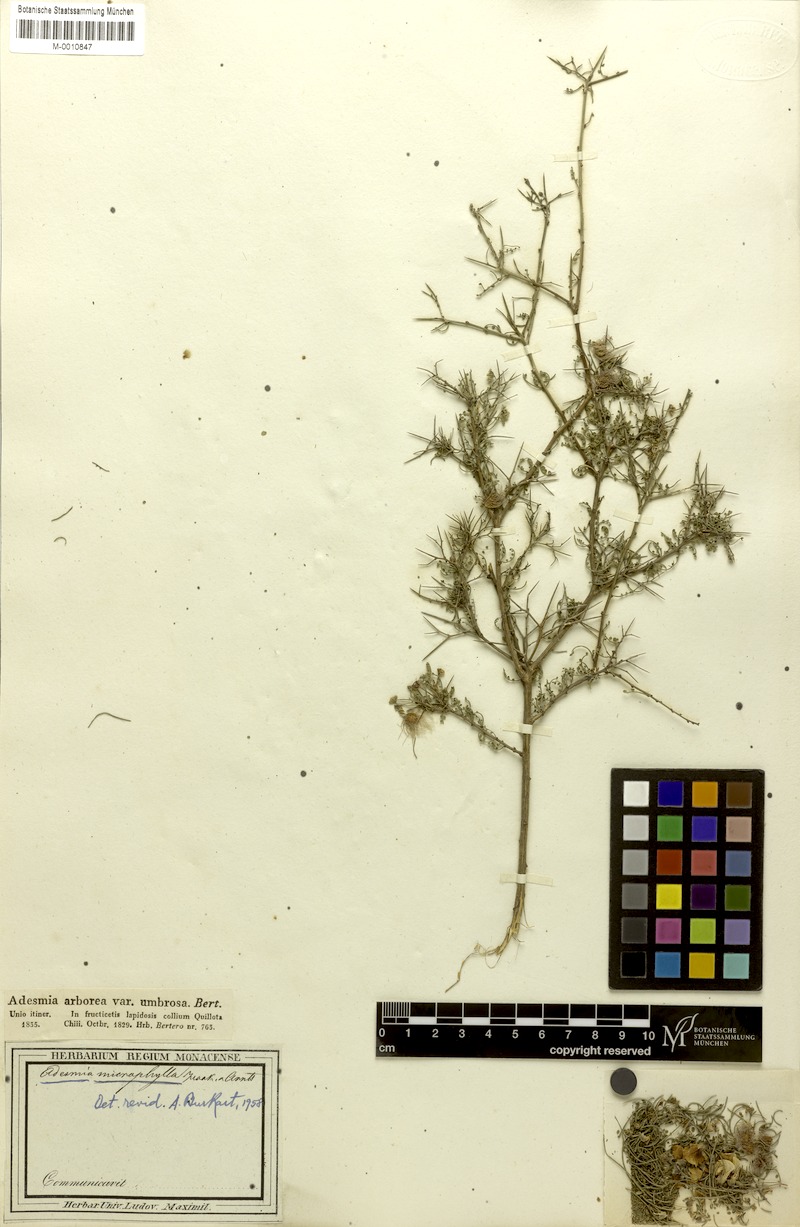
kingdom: Plantae
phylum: Tracheophyta
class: Magnoliopsida
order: Fabales
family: Fabaceae
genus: Adesmia
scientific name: Adesmia microphylla
